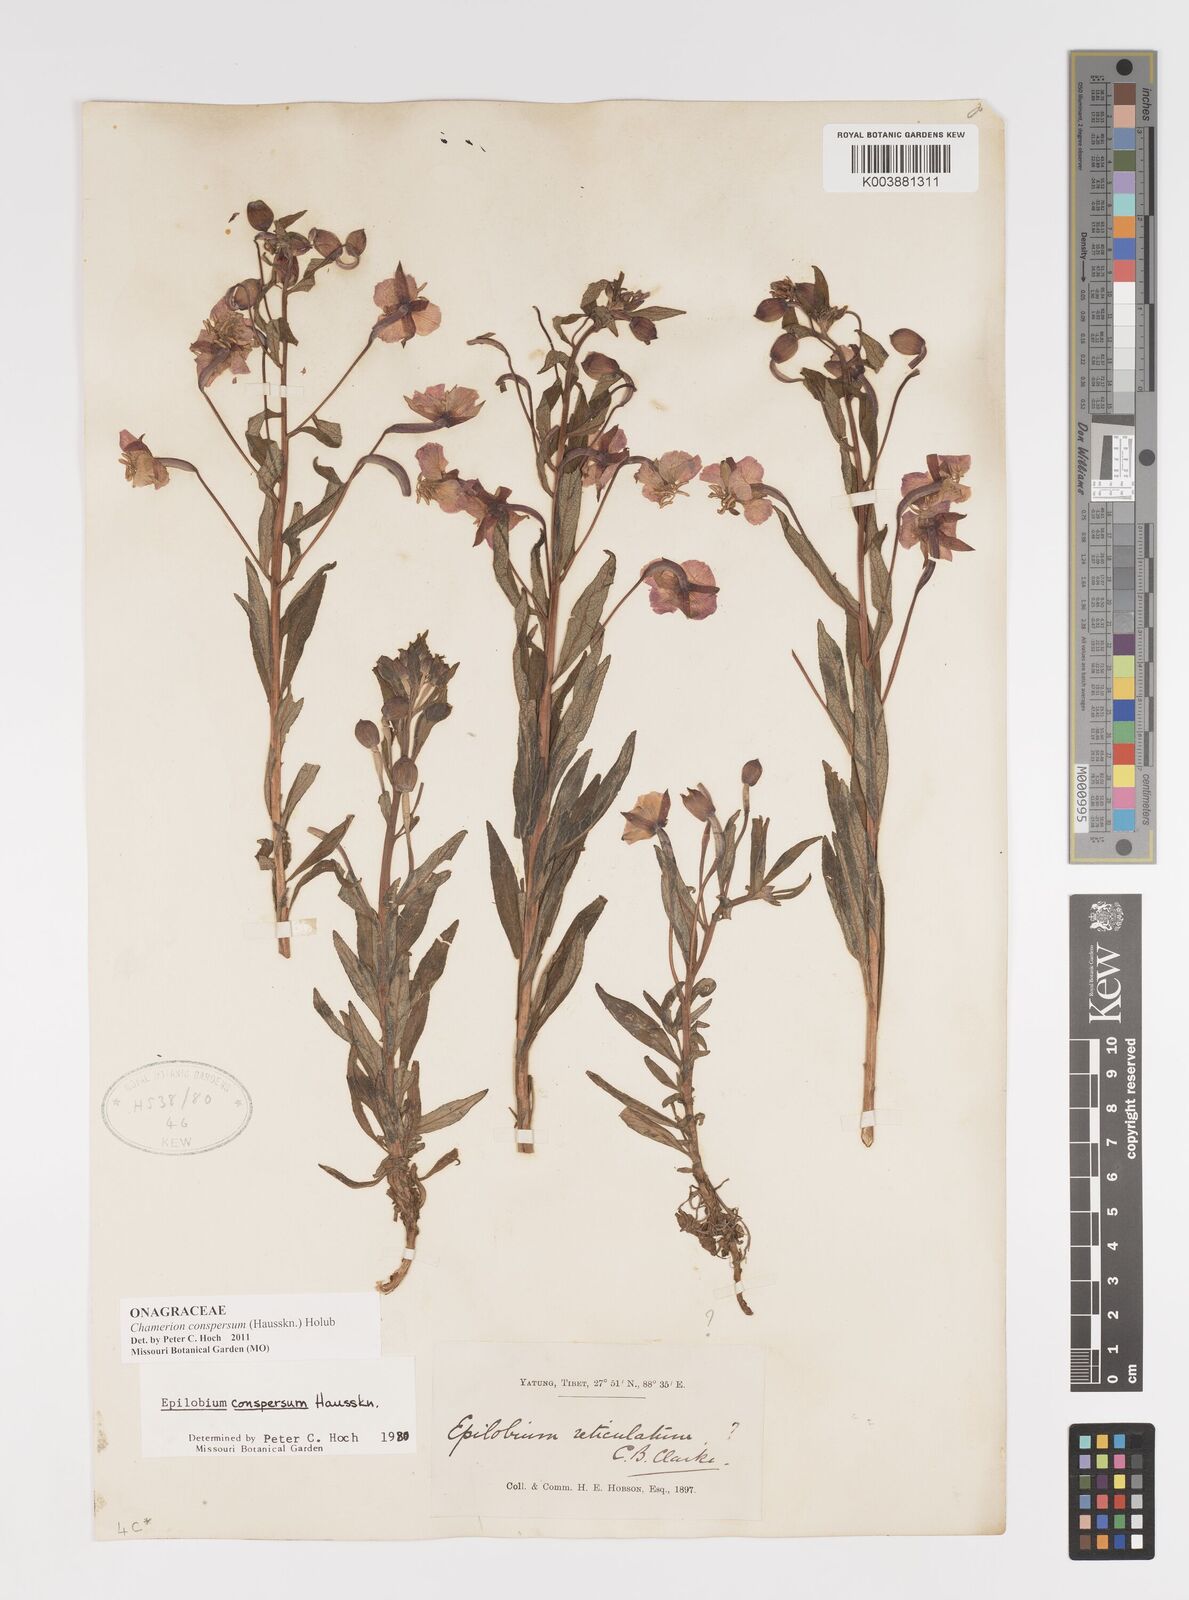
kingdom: Plantae
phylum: Tracheophyta
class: Magnoliopsida
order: Myrtales
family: Onagraceae
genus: Chamaenerion
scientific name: Chamaenerion conspersum
